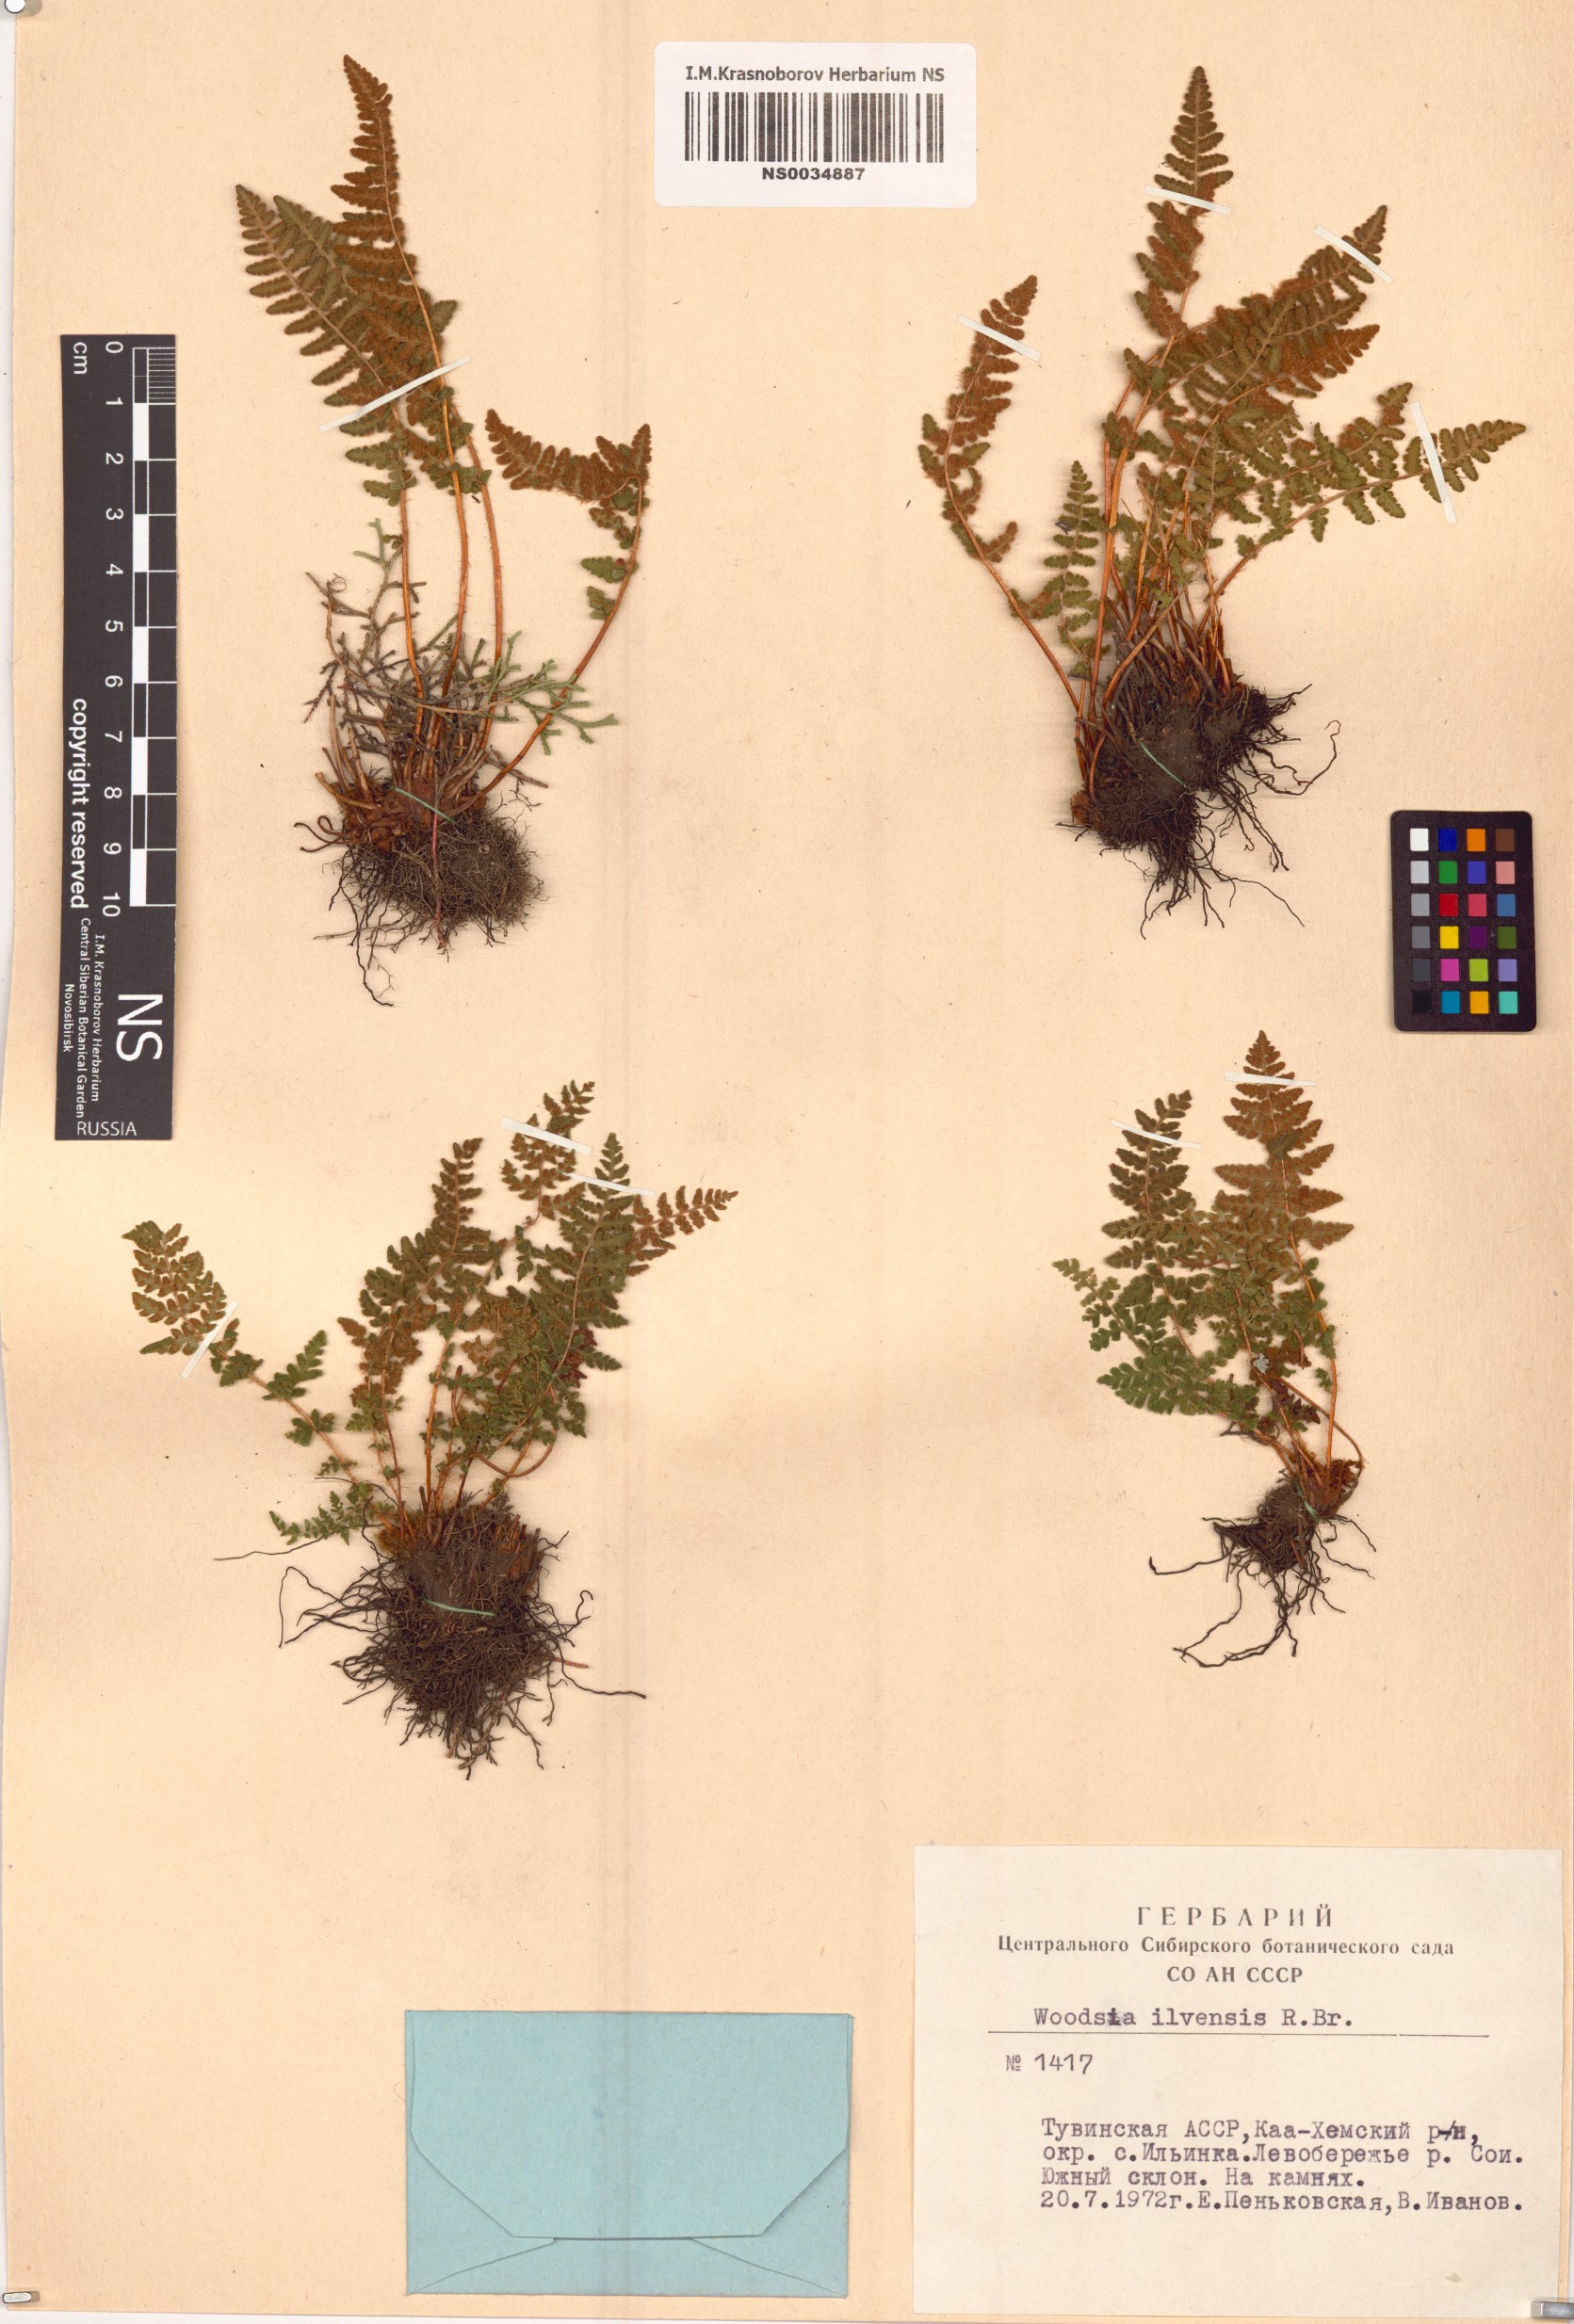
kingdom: Plantae
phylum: Tracheophyta
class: Polypodiopsida
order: Polypodiales
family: Woodsiaceae
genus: Woodsia
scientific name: Woodsia ilvensis
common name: Fragrant woodsia
